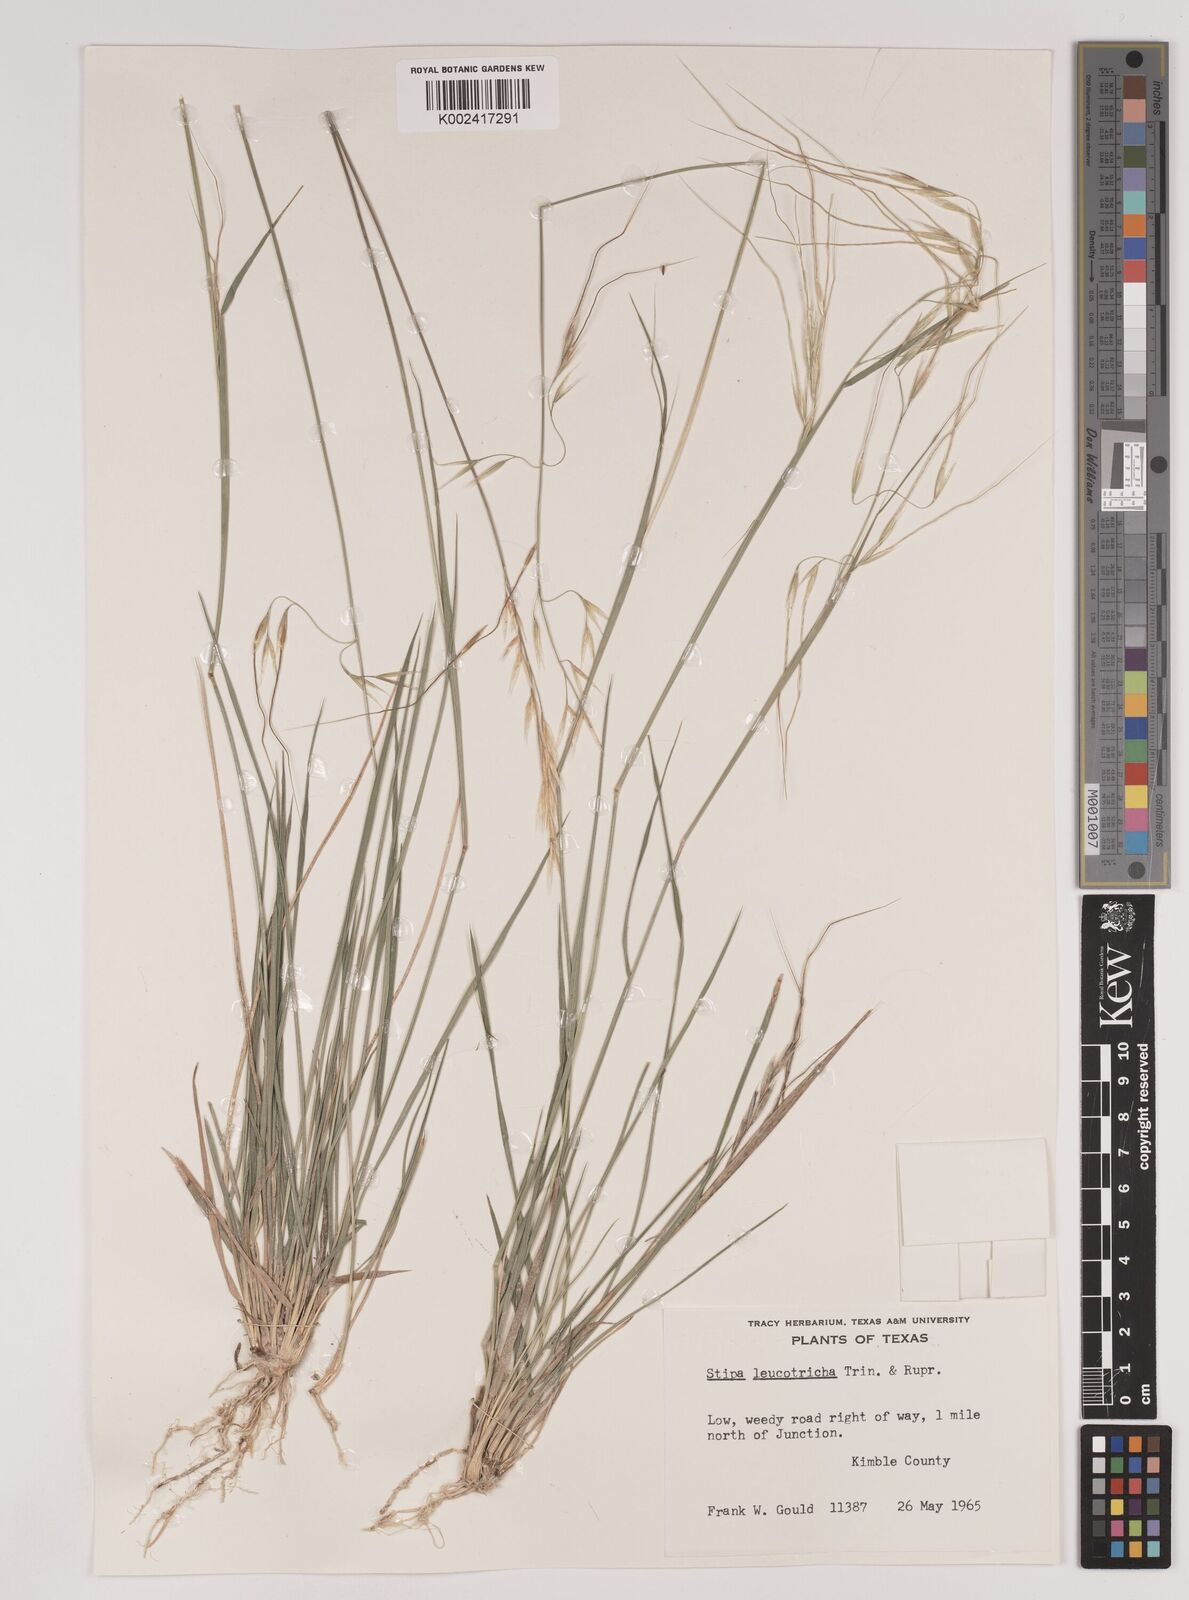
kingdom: Plantae
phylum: Tracheophyta
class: Liliopsida
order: Poales
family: Poaceae
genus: Nassella
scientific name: Nassella leucotricha
